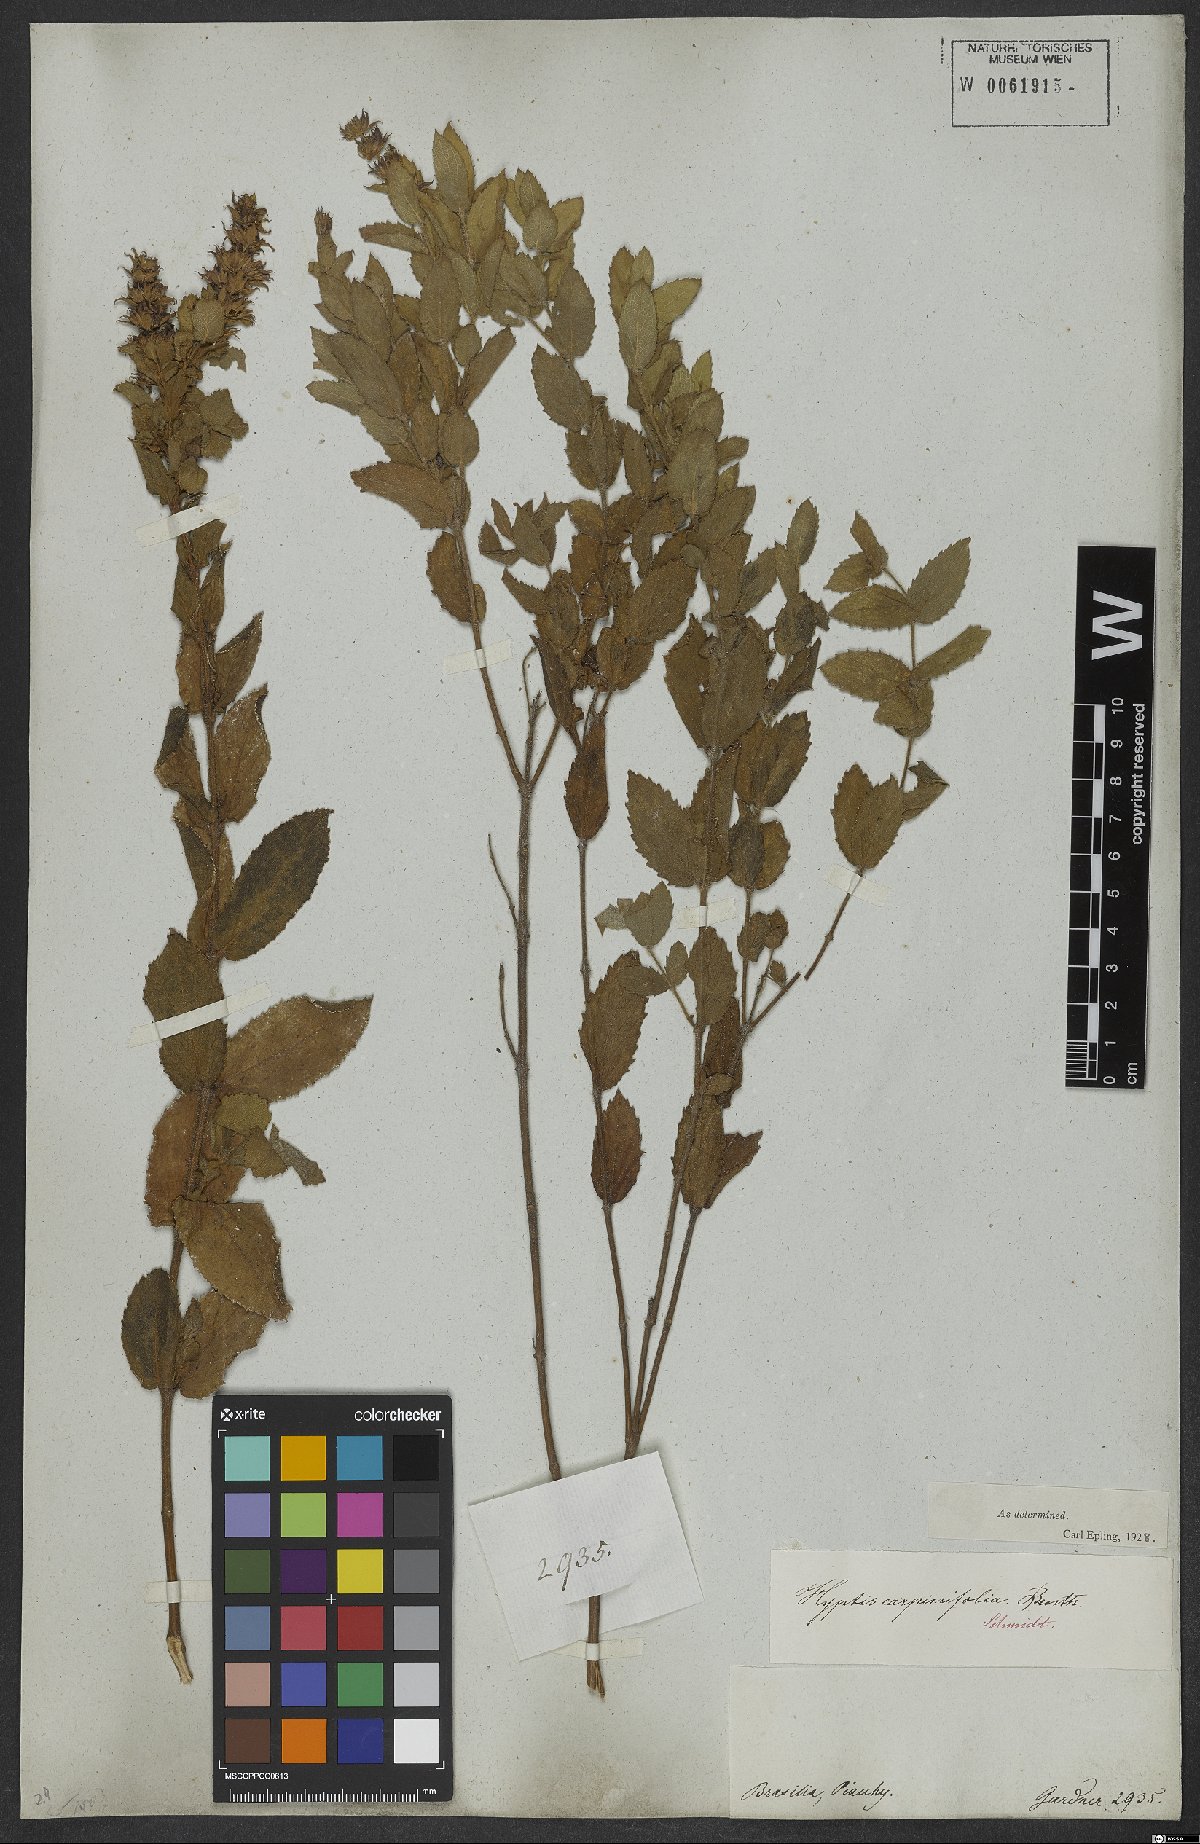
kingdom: Plantae
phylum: Tracheophyta
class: Magnoliopsida
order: Lamiales
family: Lamiaceae
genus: Cantinoa
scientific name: Cantinoa carpinifolia
